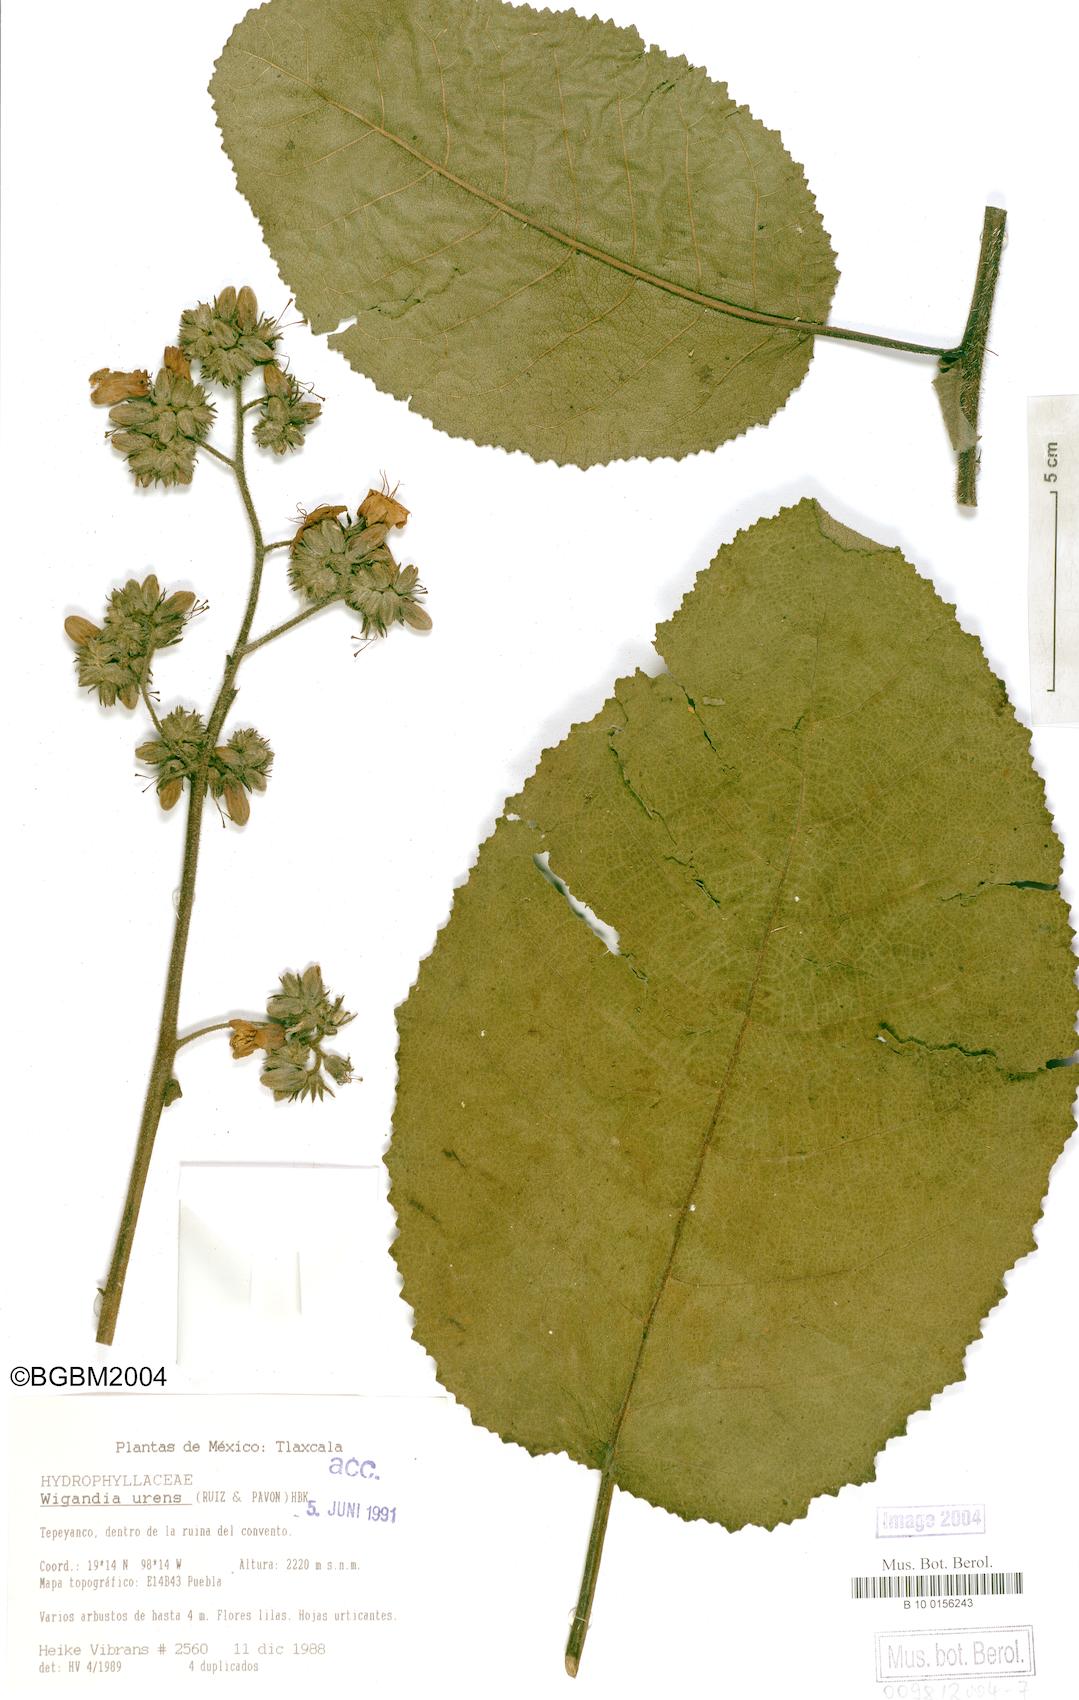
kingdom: Plantae
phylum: Tracheophyta
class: Magnoliopsida
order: Boraginales
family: Namaceae
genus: Wigandia
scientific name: Wigandia urens
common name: Caracus wigandia
